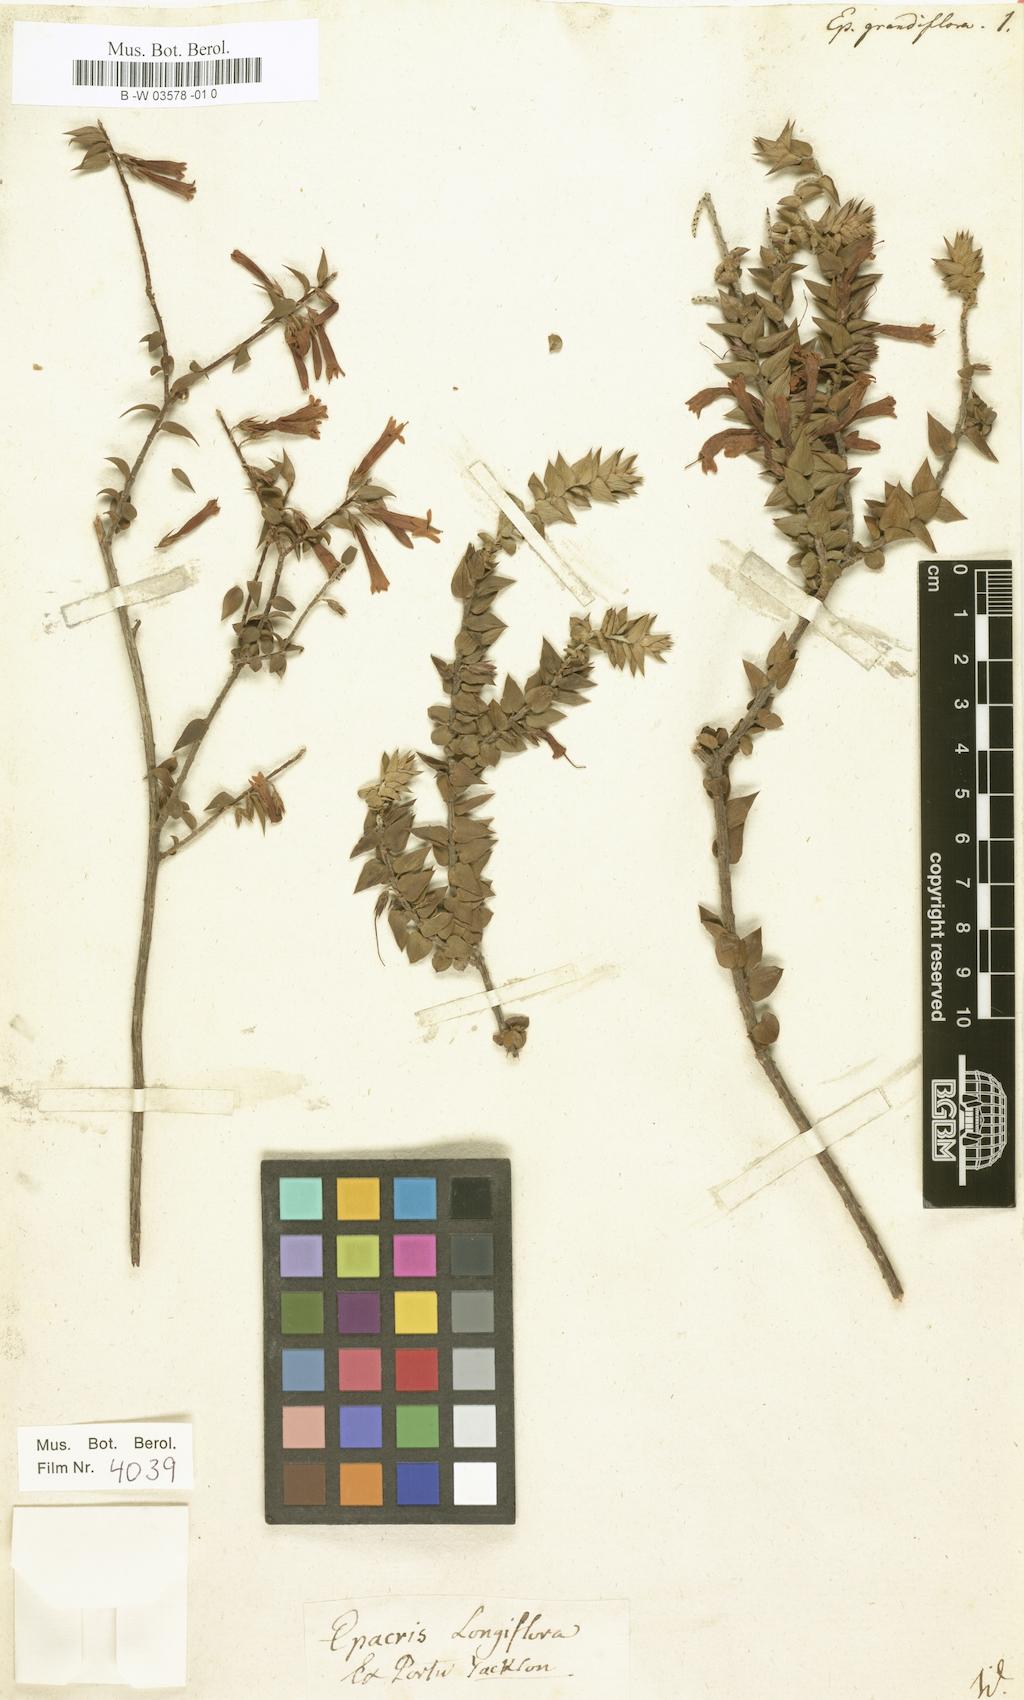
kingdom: Plantae
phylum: Tracheophyta
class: Magnoliopsida
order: Ericales
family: Ericaceae
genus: Epacris
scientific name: Epacris longiflora
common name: Fuchsia-heath
